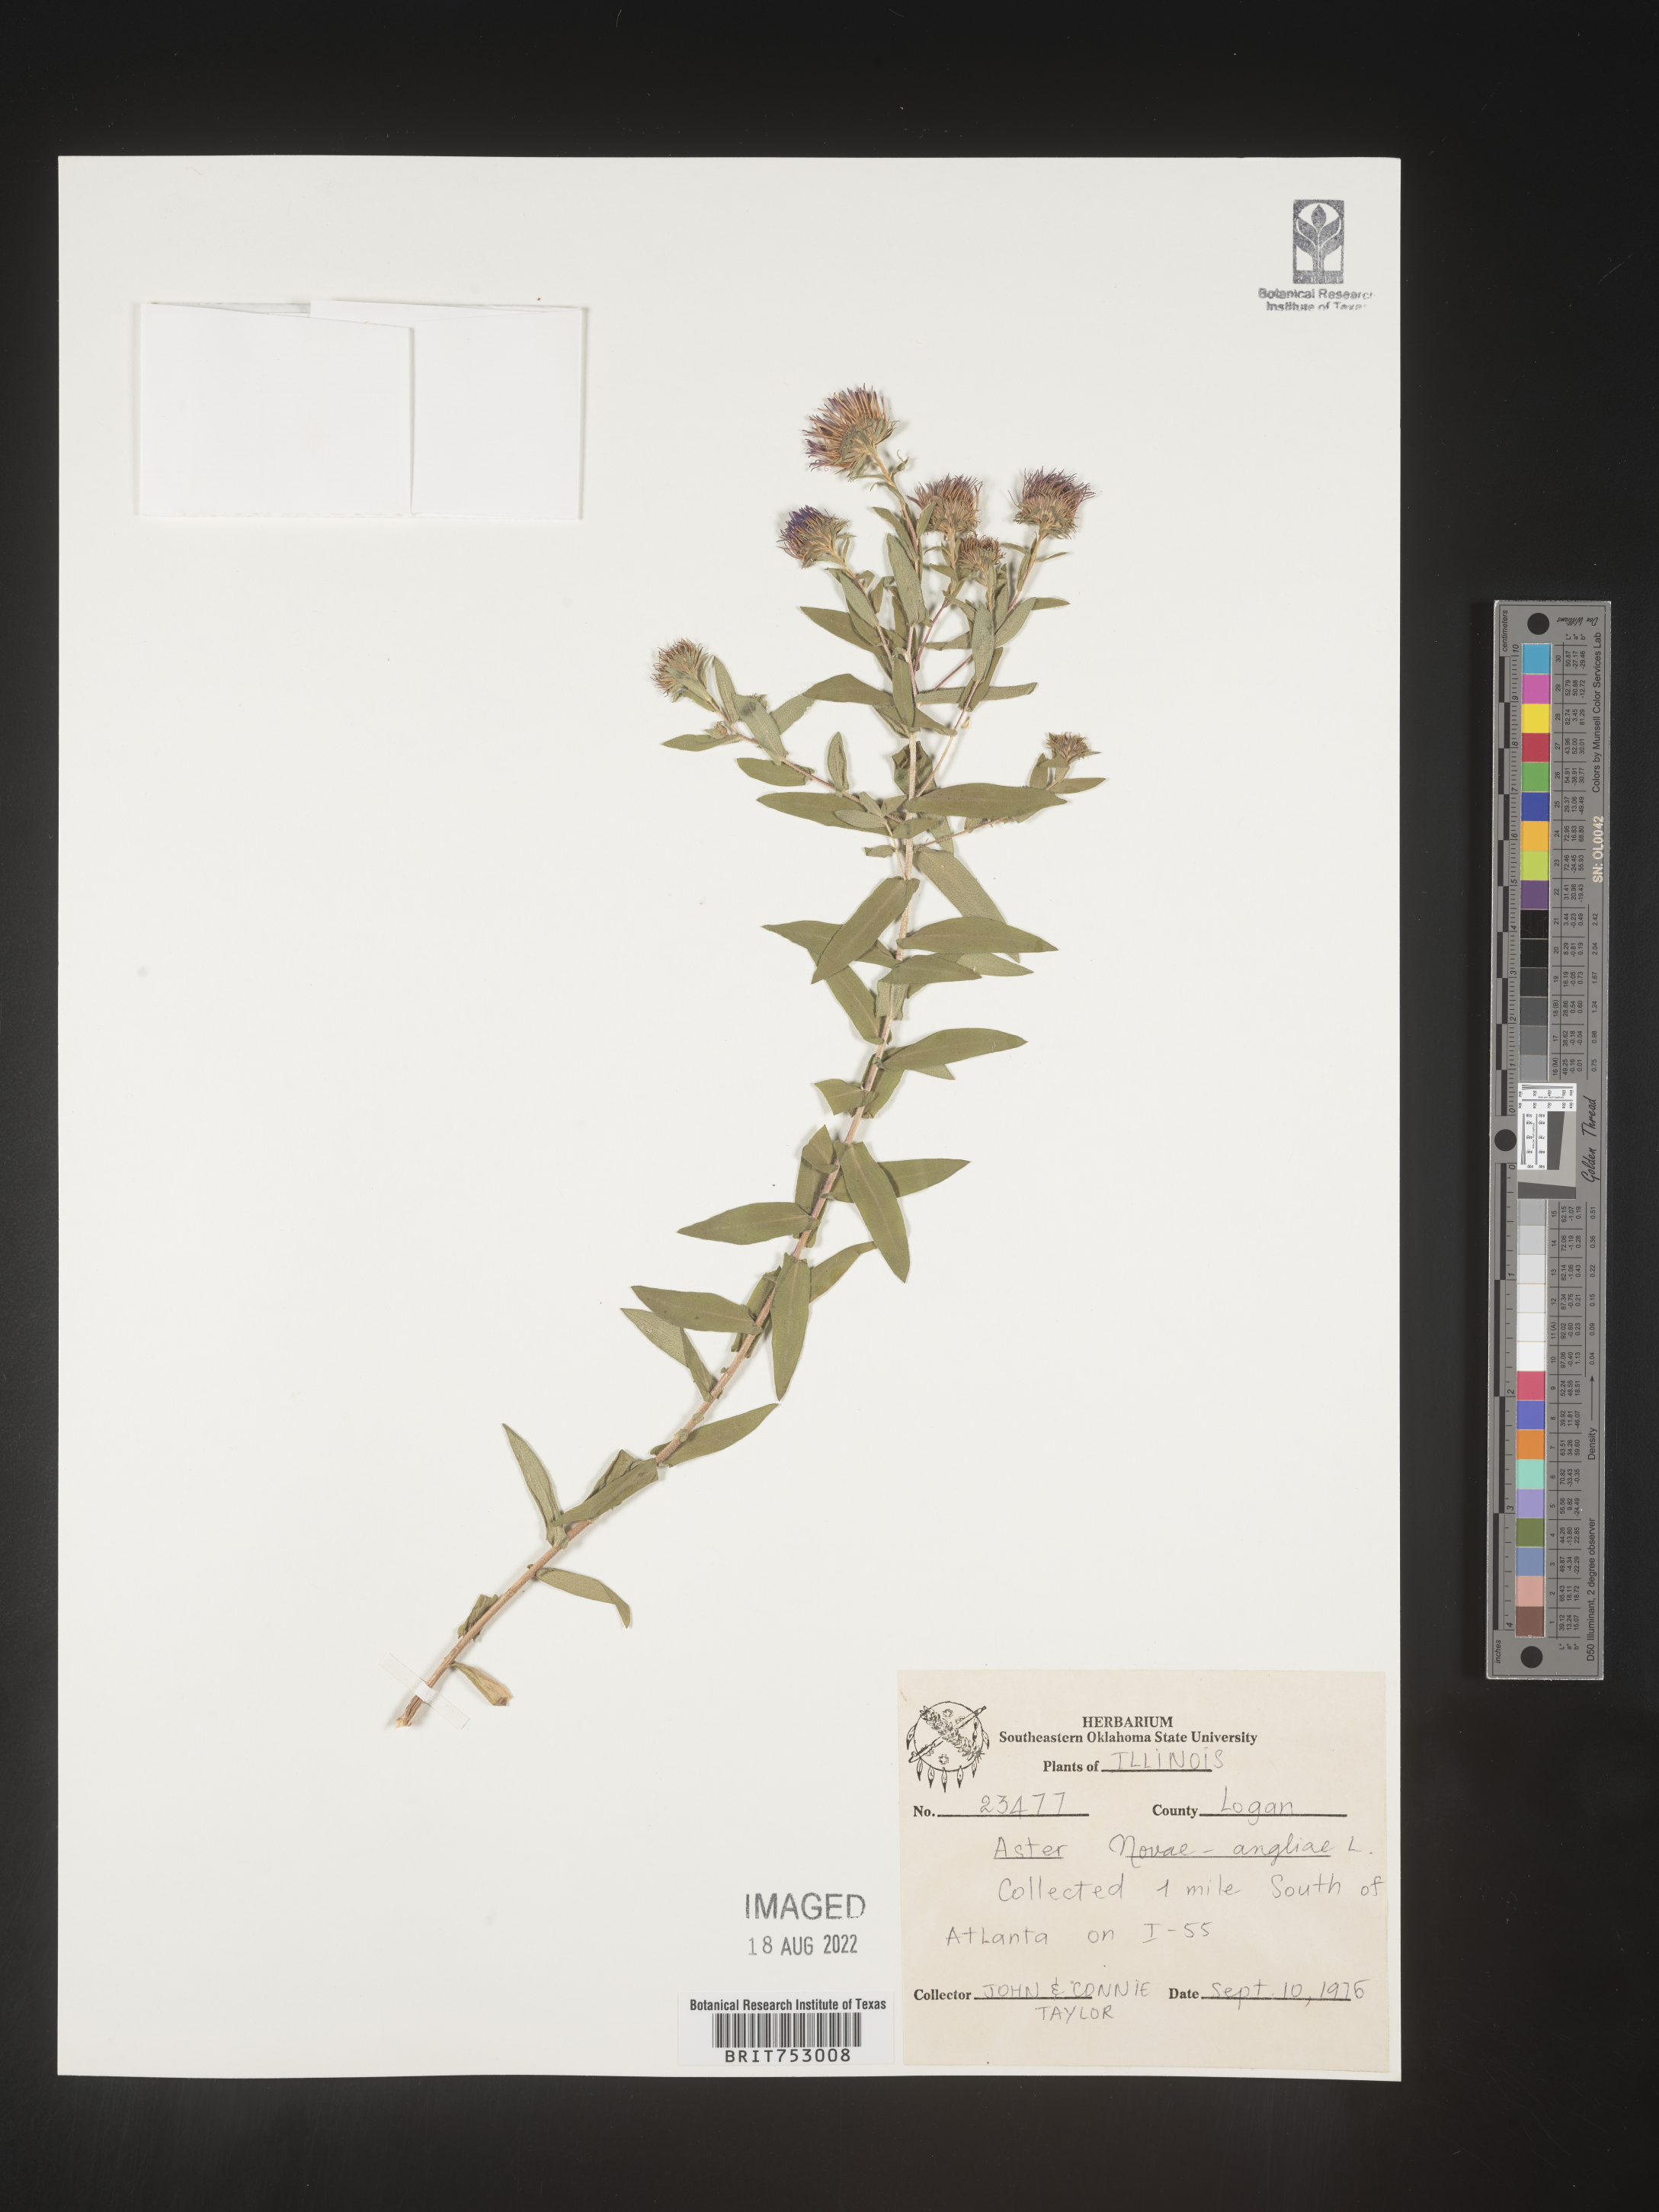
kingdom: Plantae
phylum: Tracheophyta
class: Magnoliopsida
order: Asterales
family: Asteraceae
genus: Symphyotrichum
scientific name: Symphyotrichum novae-angliae
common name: Michaelmas daisy
